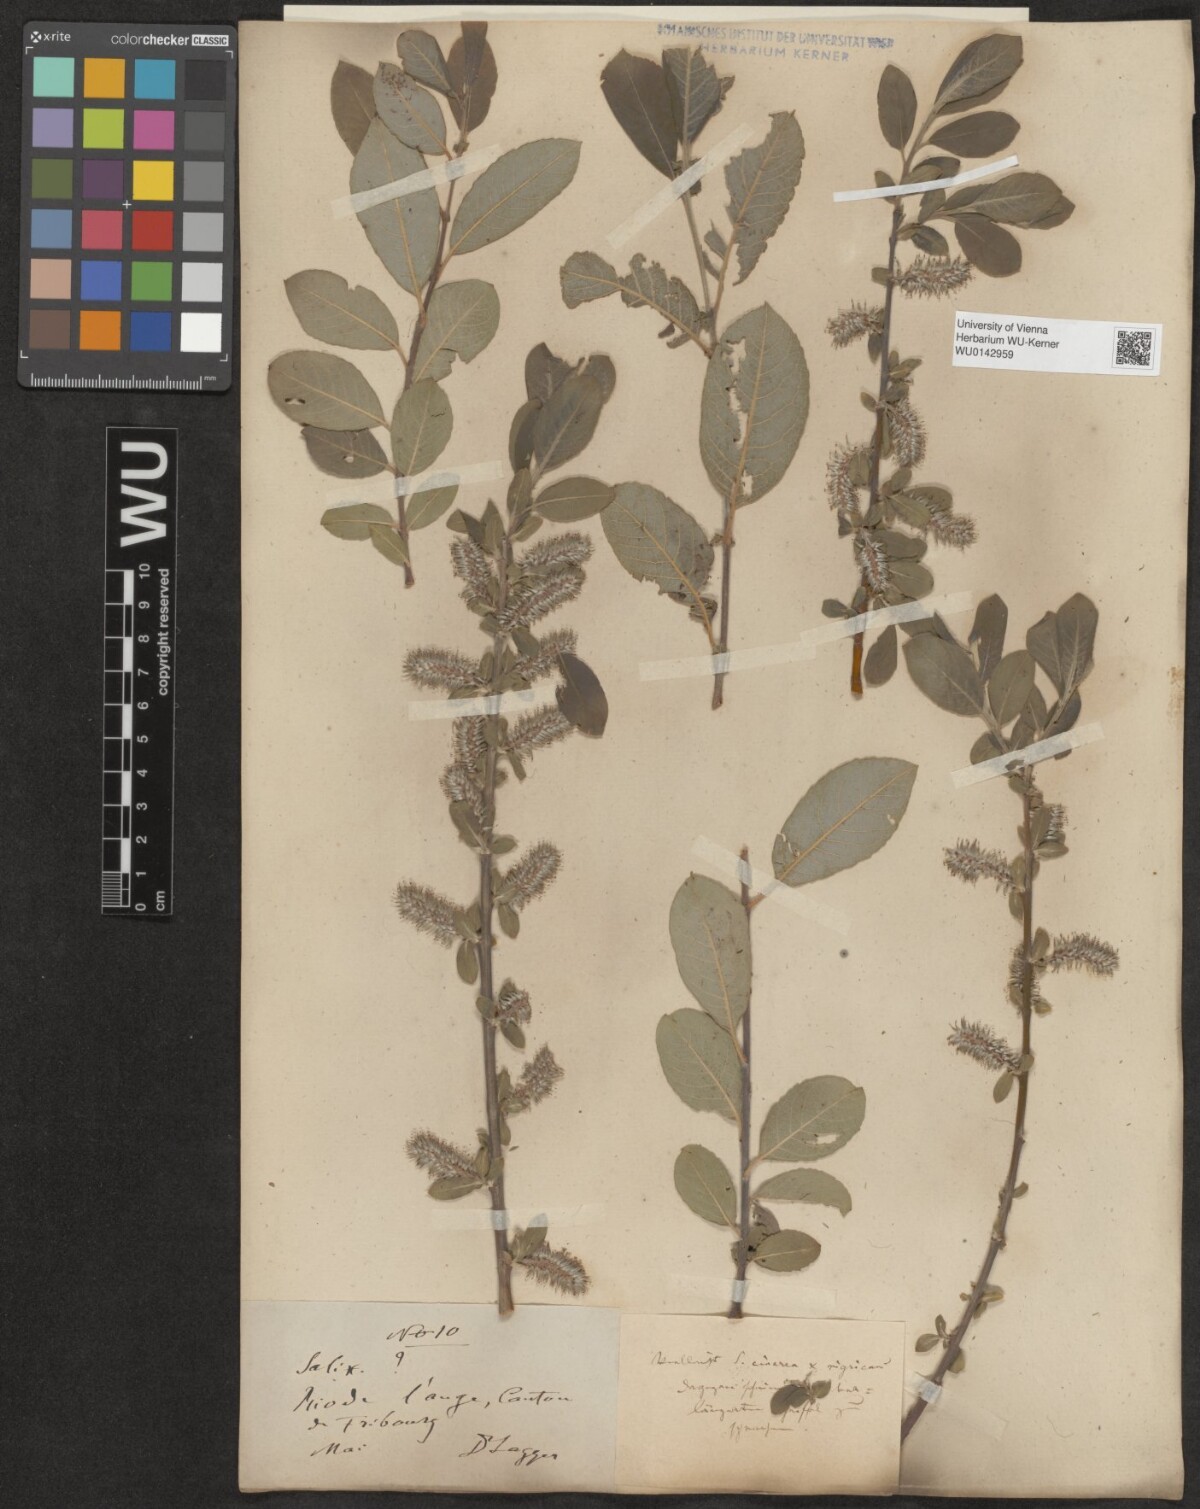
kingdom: Plantae
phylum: Tracheophyta
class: Magnoliopsida
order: Malpighiales
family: Salicaceae
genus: Salix
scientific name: Salix myrsinifolia
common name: Dark-leaved willow
